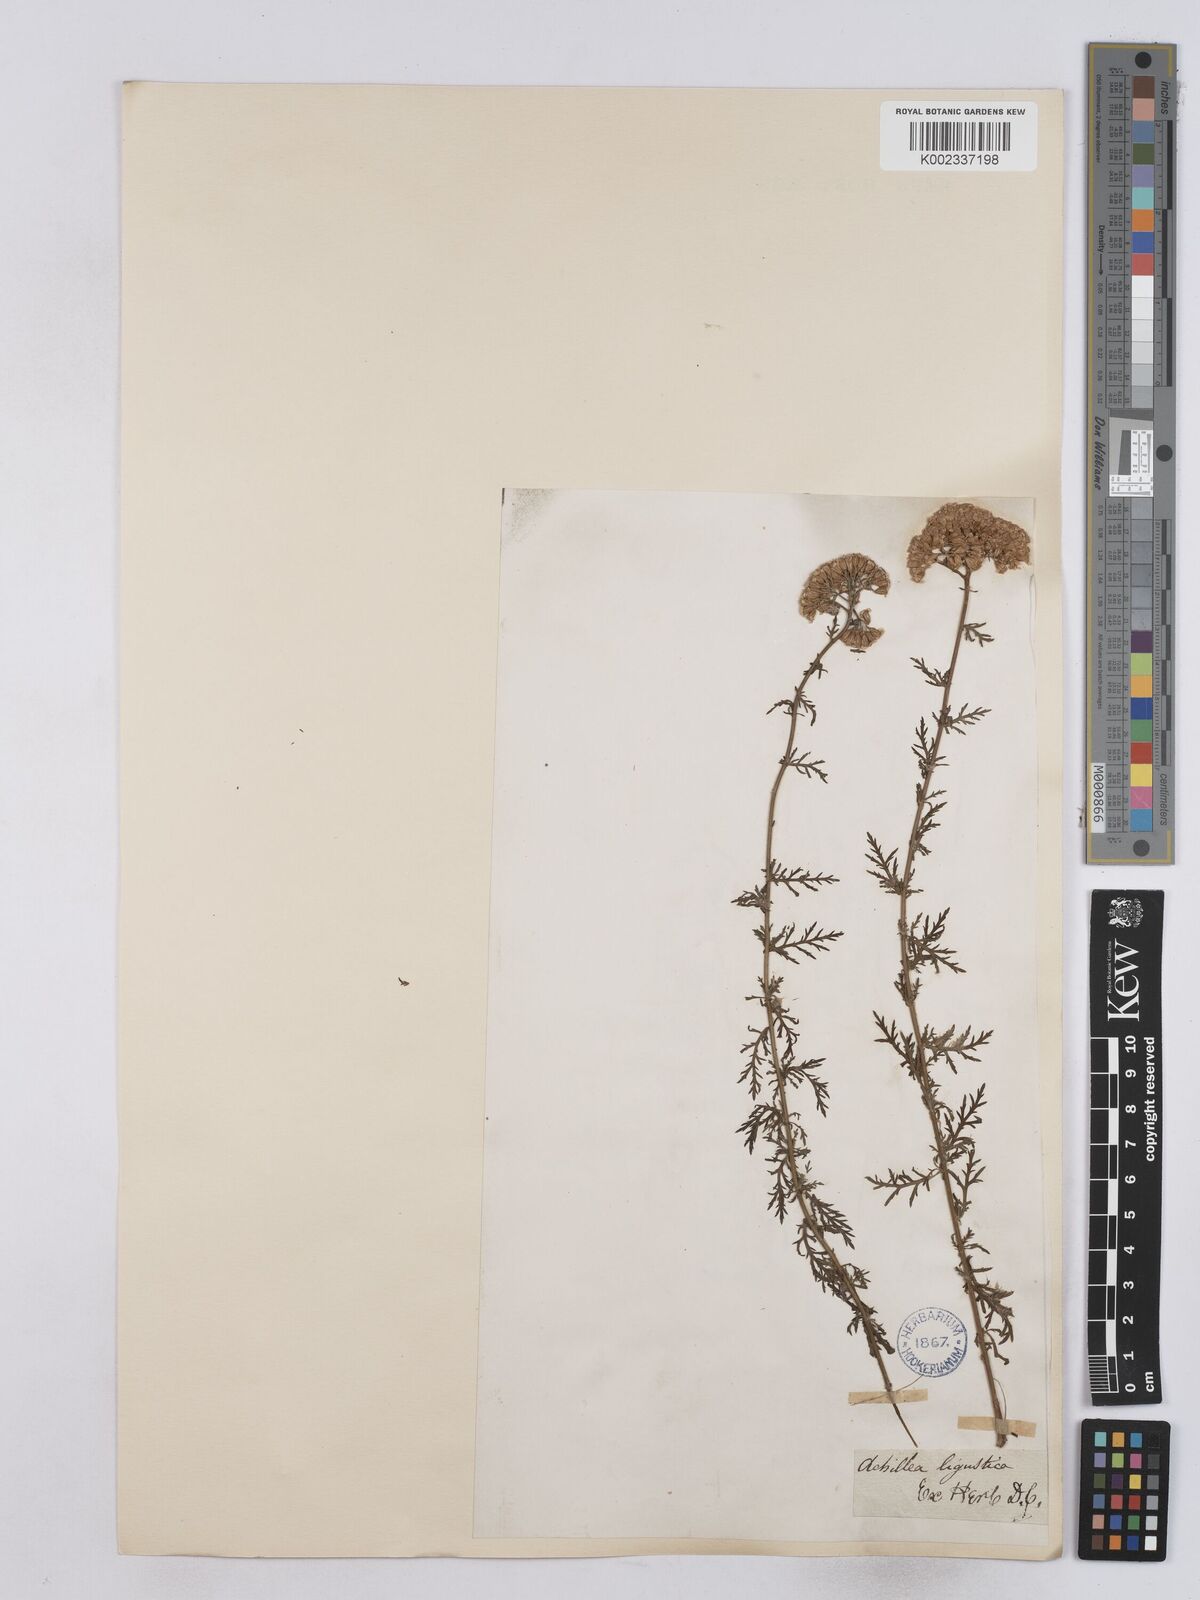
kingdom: Plantae
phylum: Tracheophyta
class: Magnoliopsida
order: Asterales
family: Asteraceae
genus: Achillea
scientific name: Achillea ligustica
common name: Southern yarrow
